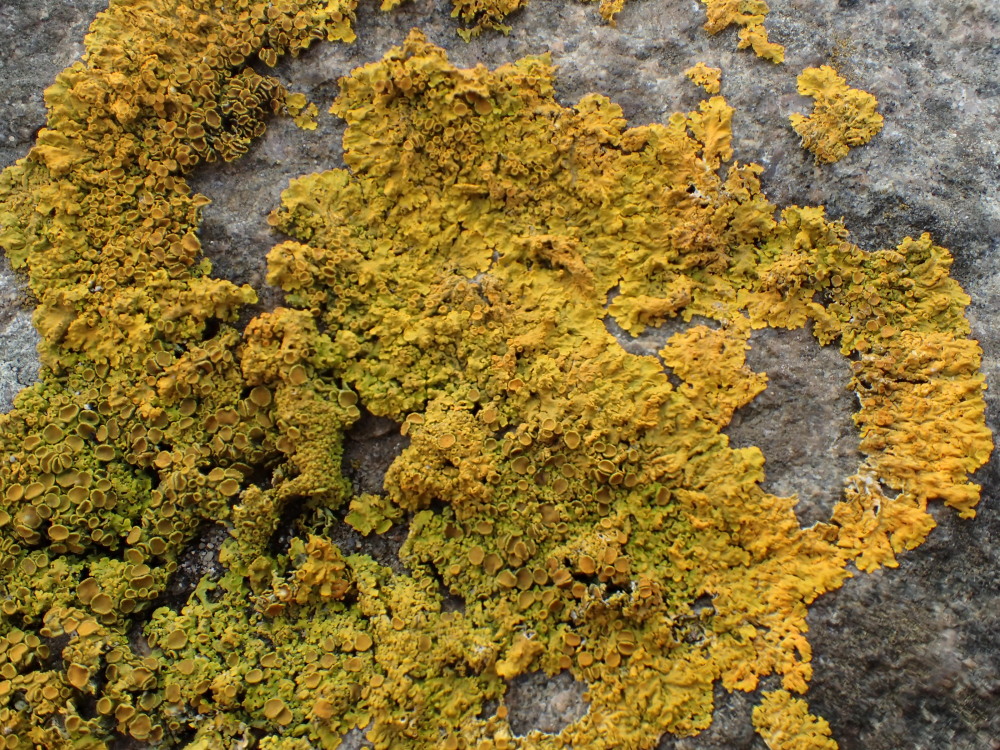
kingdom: Fungi
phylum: Ascomycota
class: Lecanoromycetes
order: Teloschistales
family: Teloschistaceae
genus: Xanthoria
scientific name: Xanthoria parietina
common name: almindelig væggelav
